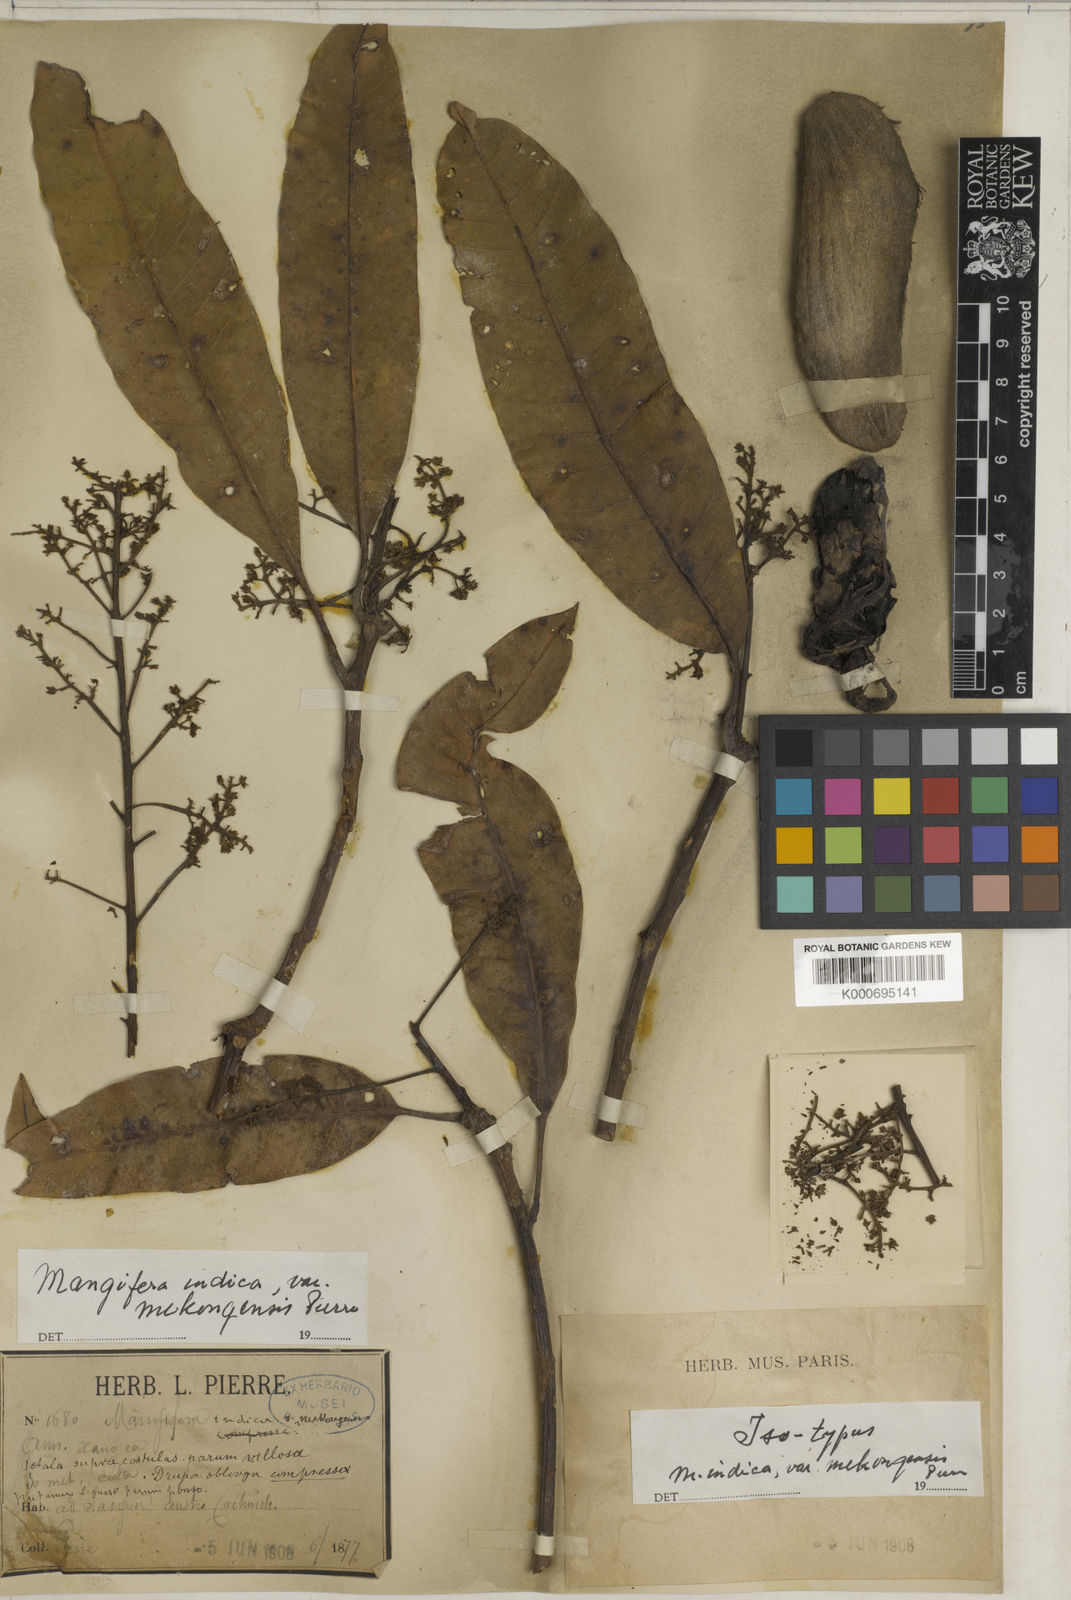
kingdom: Plantae
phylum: Tracheophyta
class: Magnoliopsida
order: Sapindales
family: Anacardiaceae
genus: Mangifera
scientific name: Mangifera indica
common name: Mango
